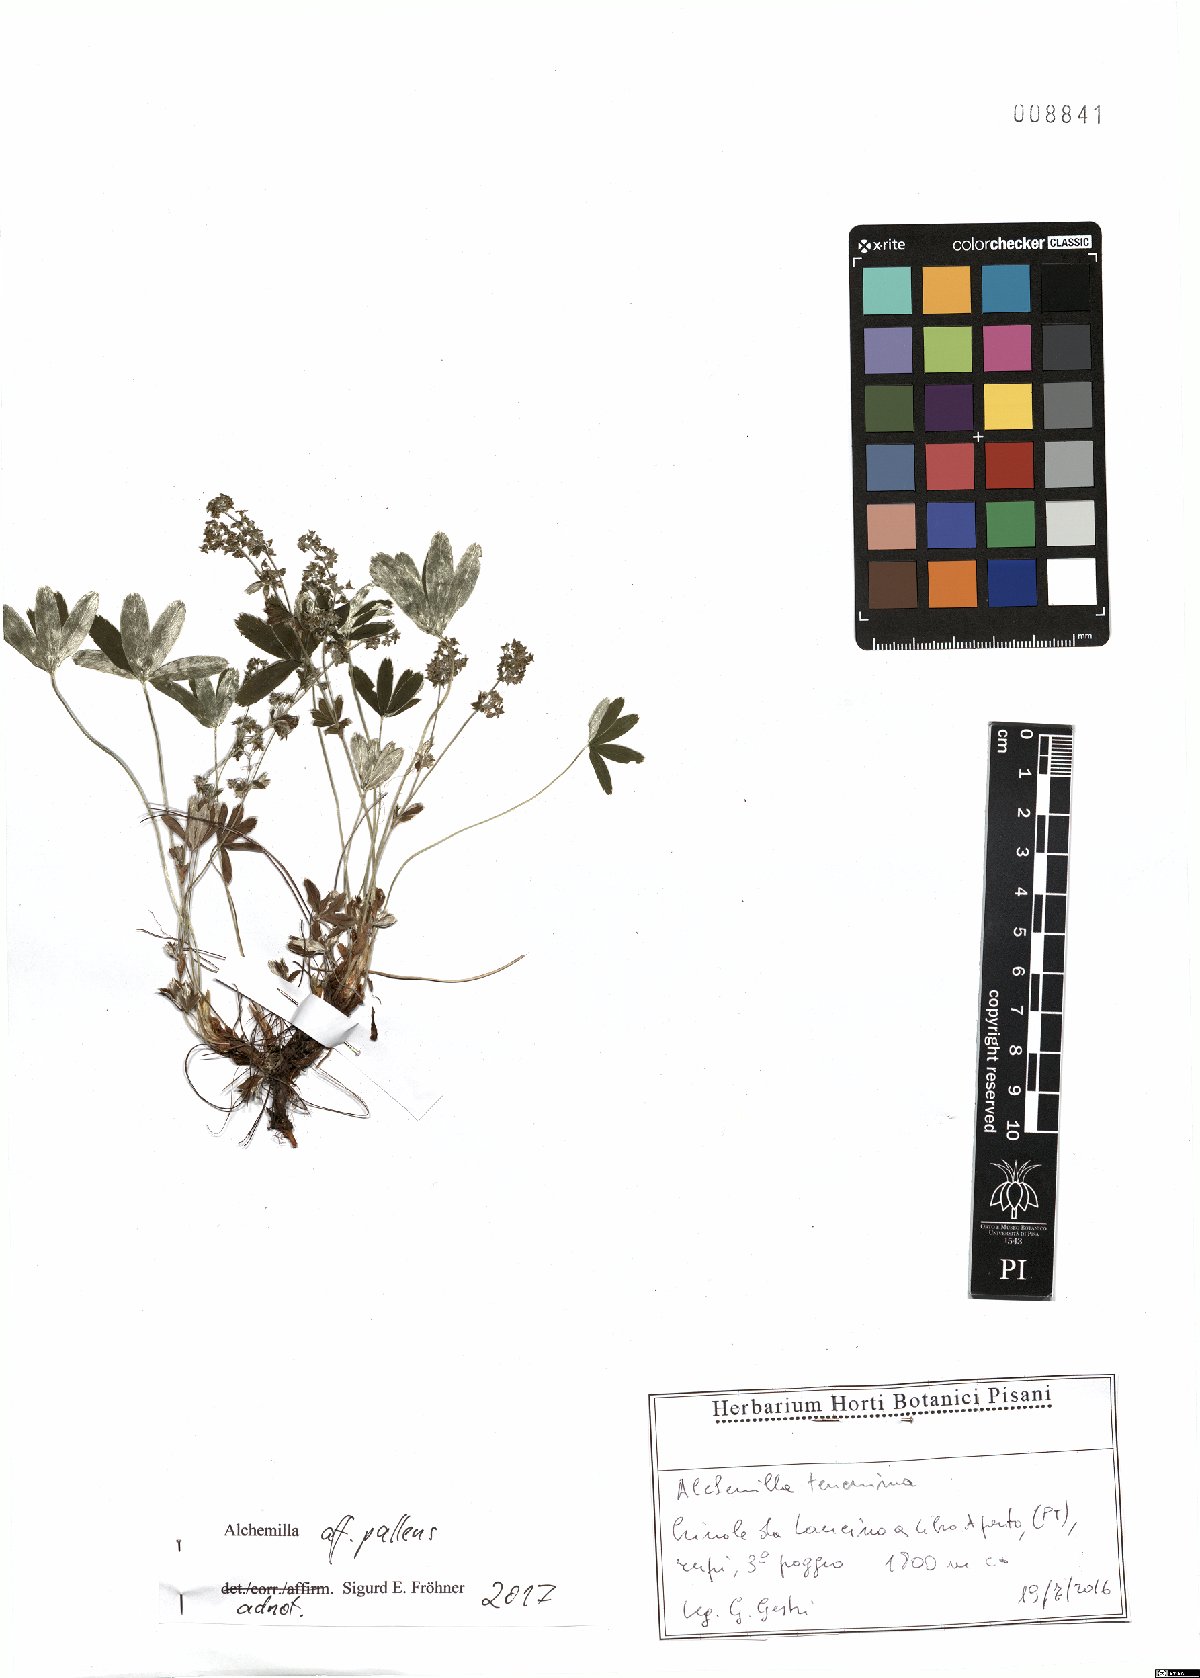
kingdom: Plantae
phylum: Tracheophyta
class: Magnoliopsida
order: Rosales
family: Rosaceae
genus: Alchemilla
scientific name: Alchemilla pallens
